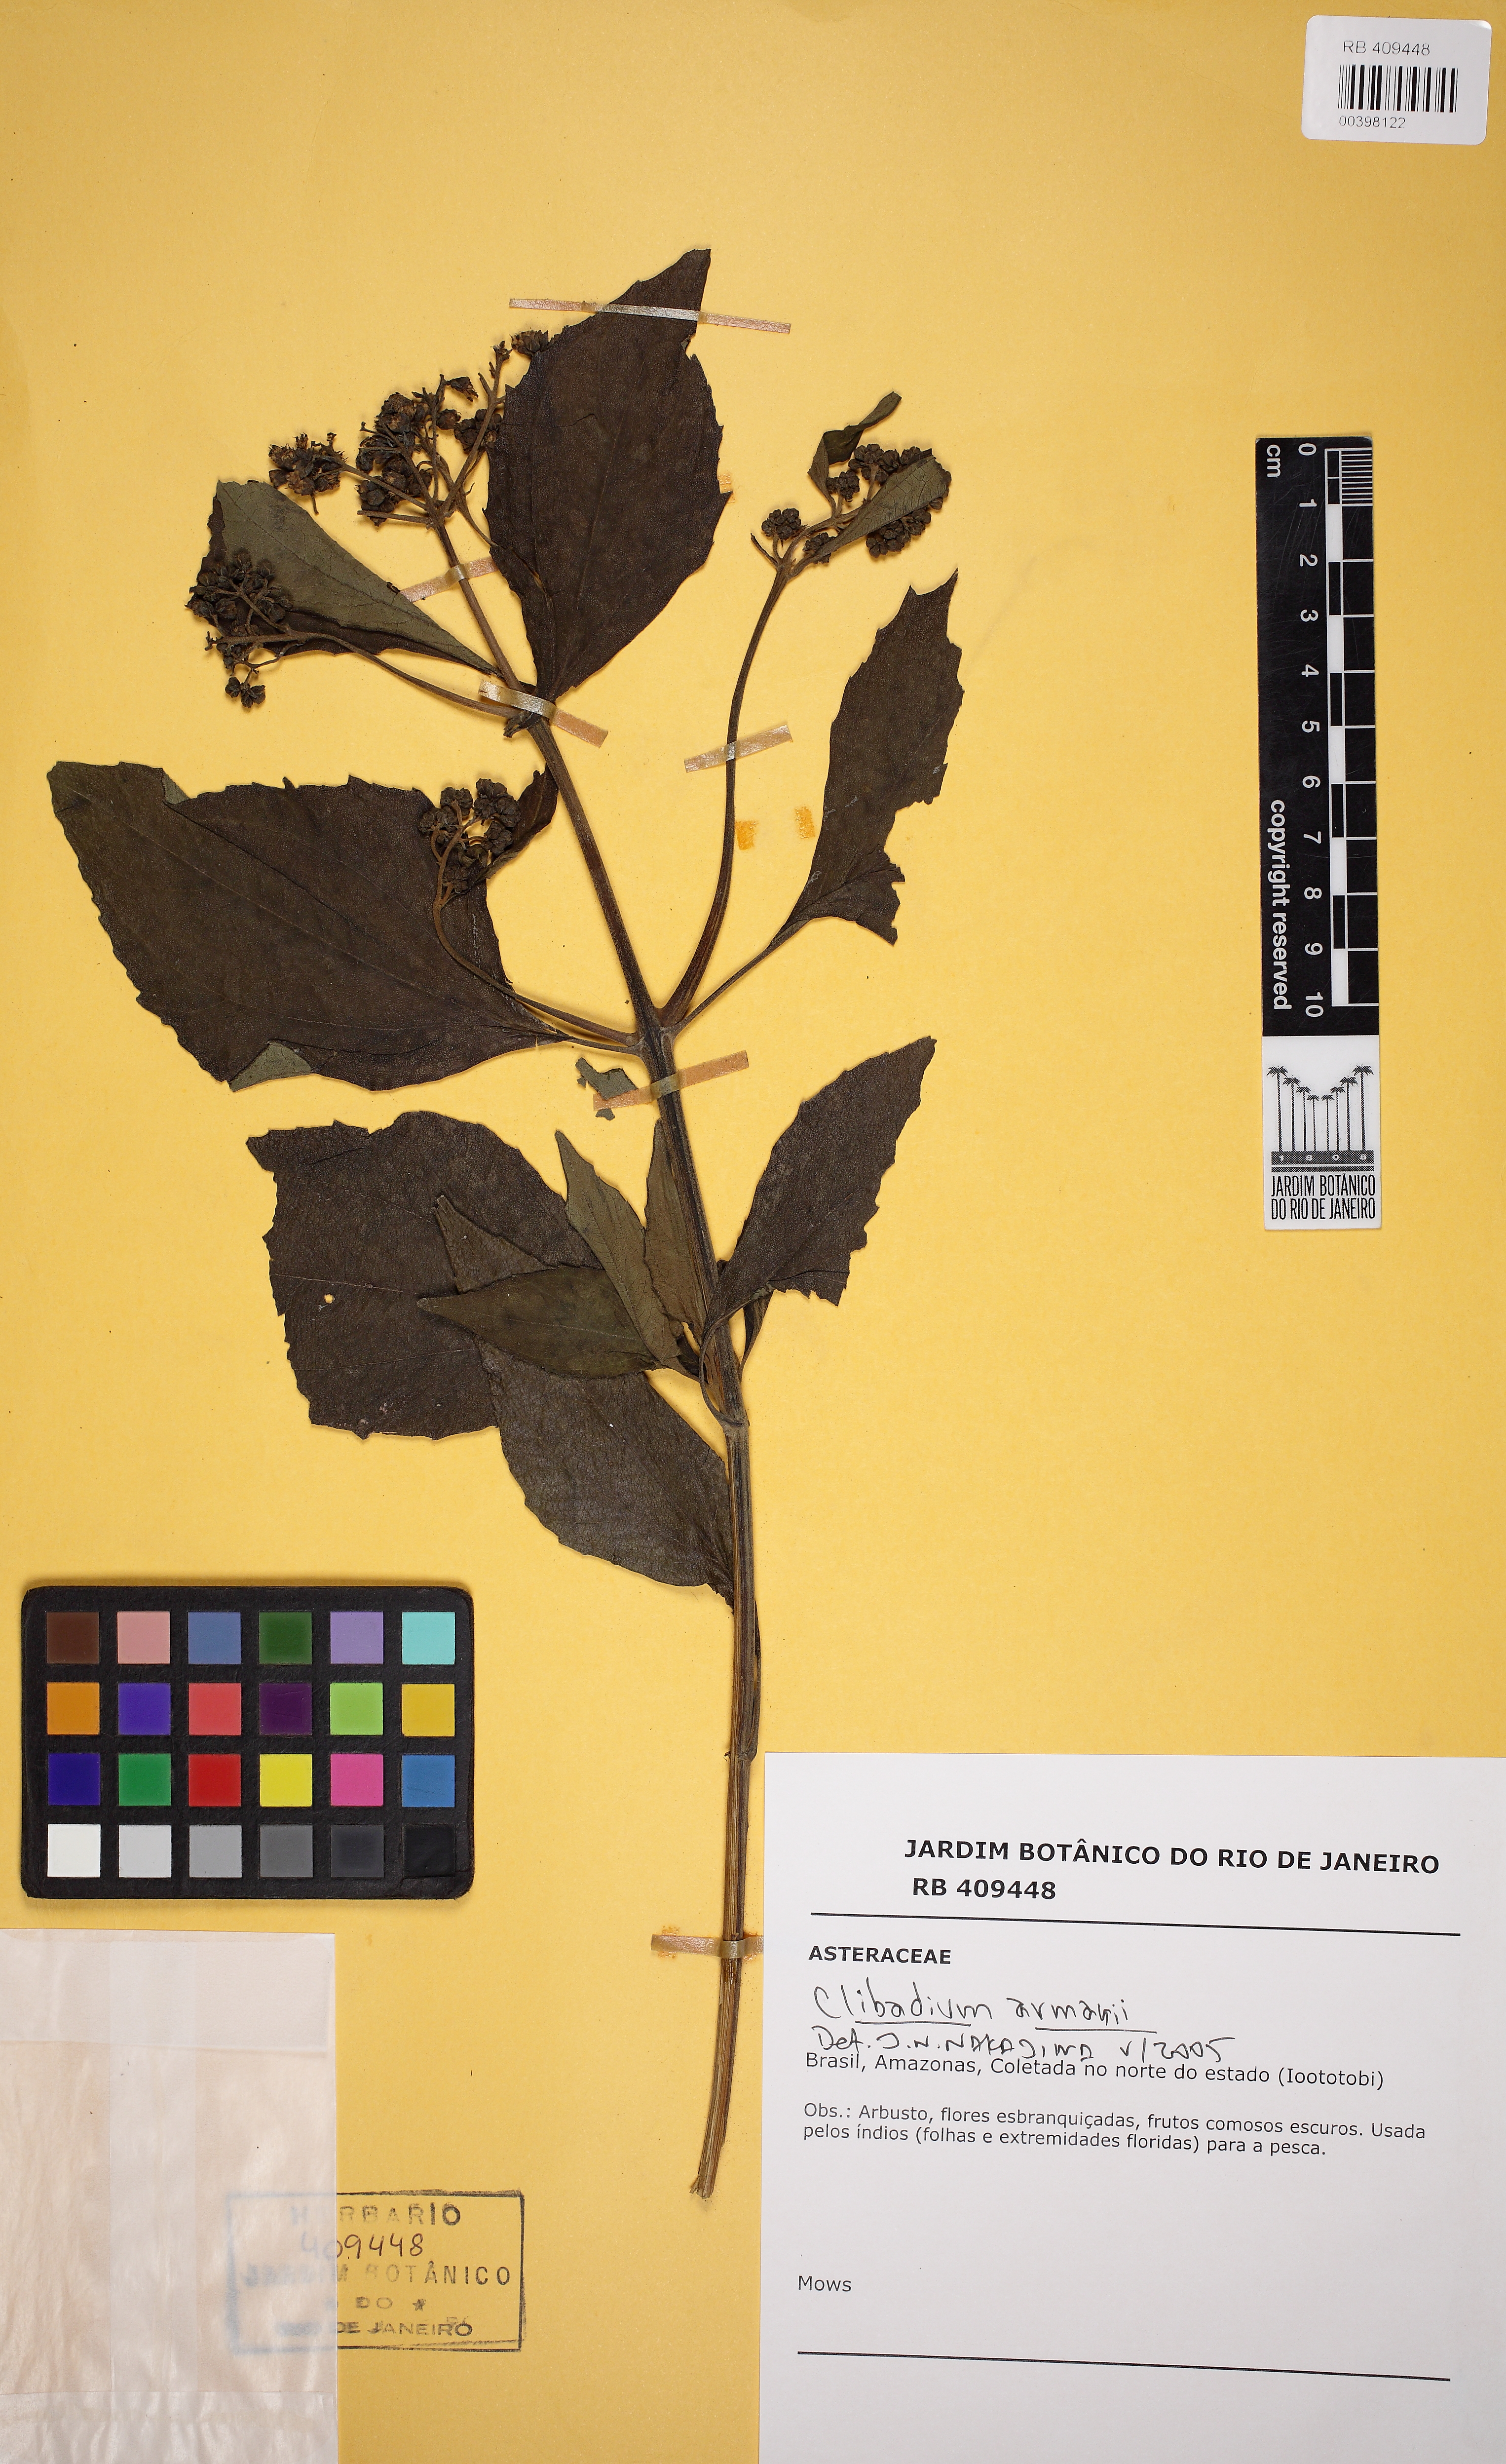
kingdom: Plantae
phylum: Tracheophyta
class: Magnoliopsida
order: Asterales
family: Asteraceae
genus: Clibadium
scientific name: Clibadium armanii
